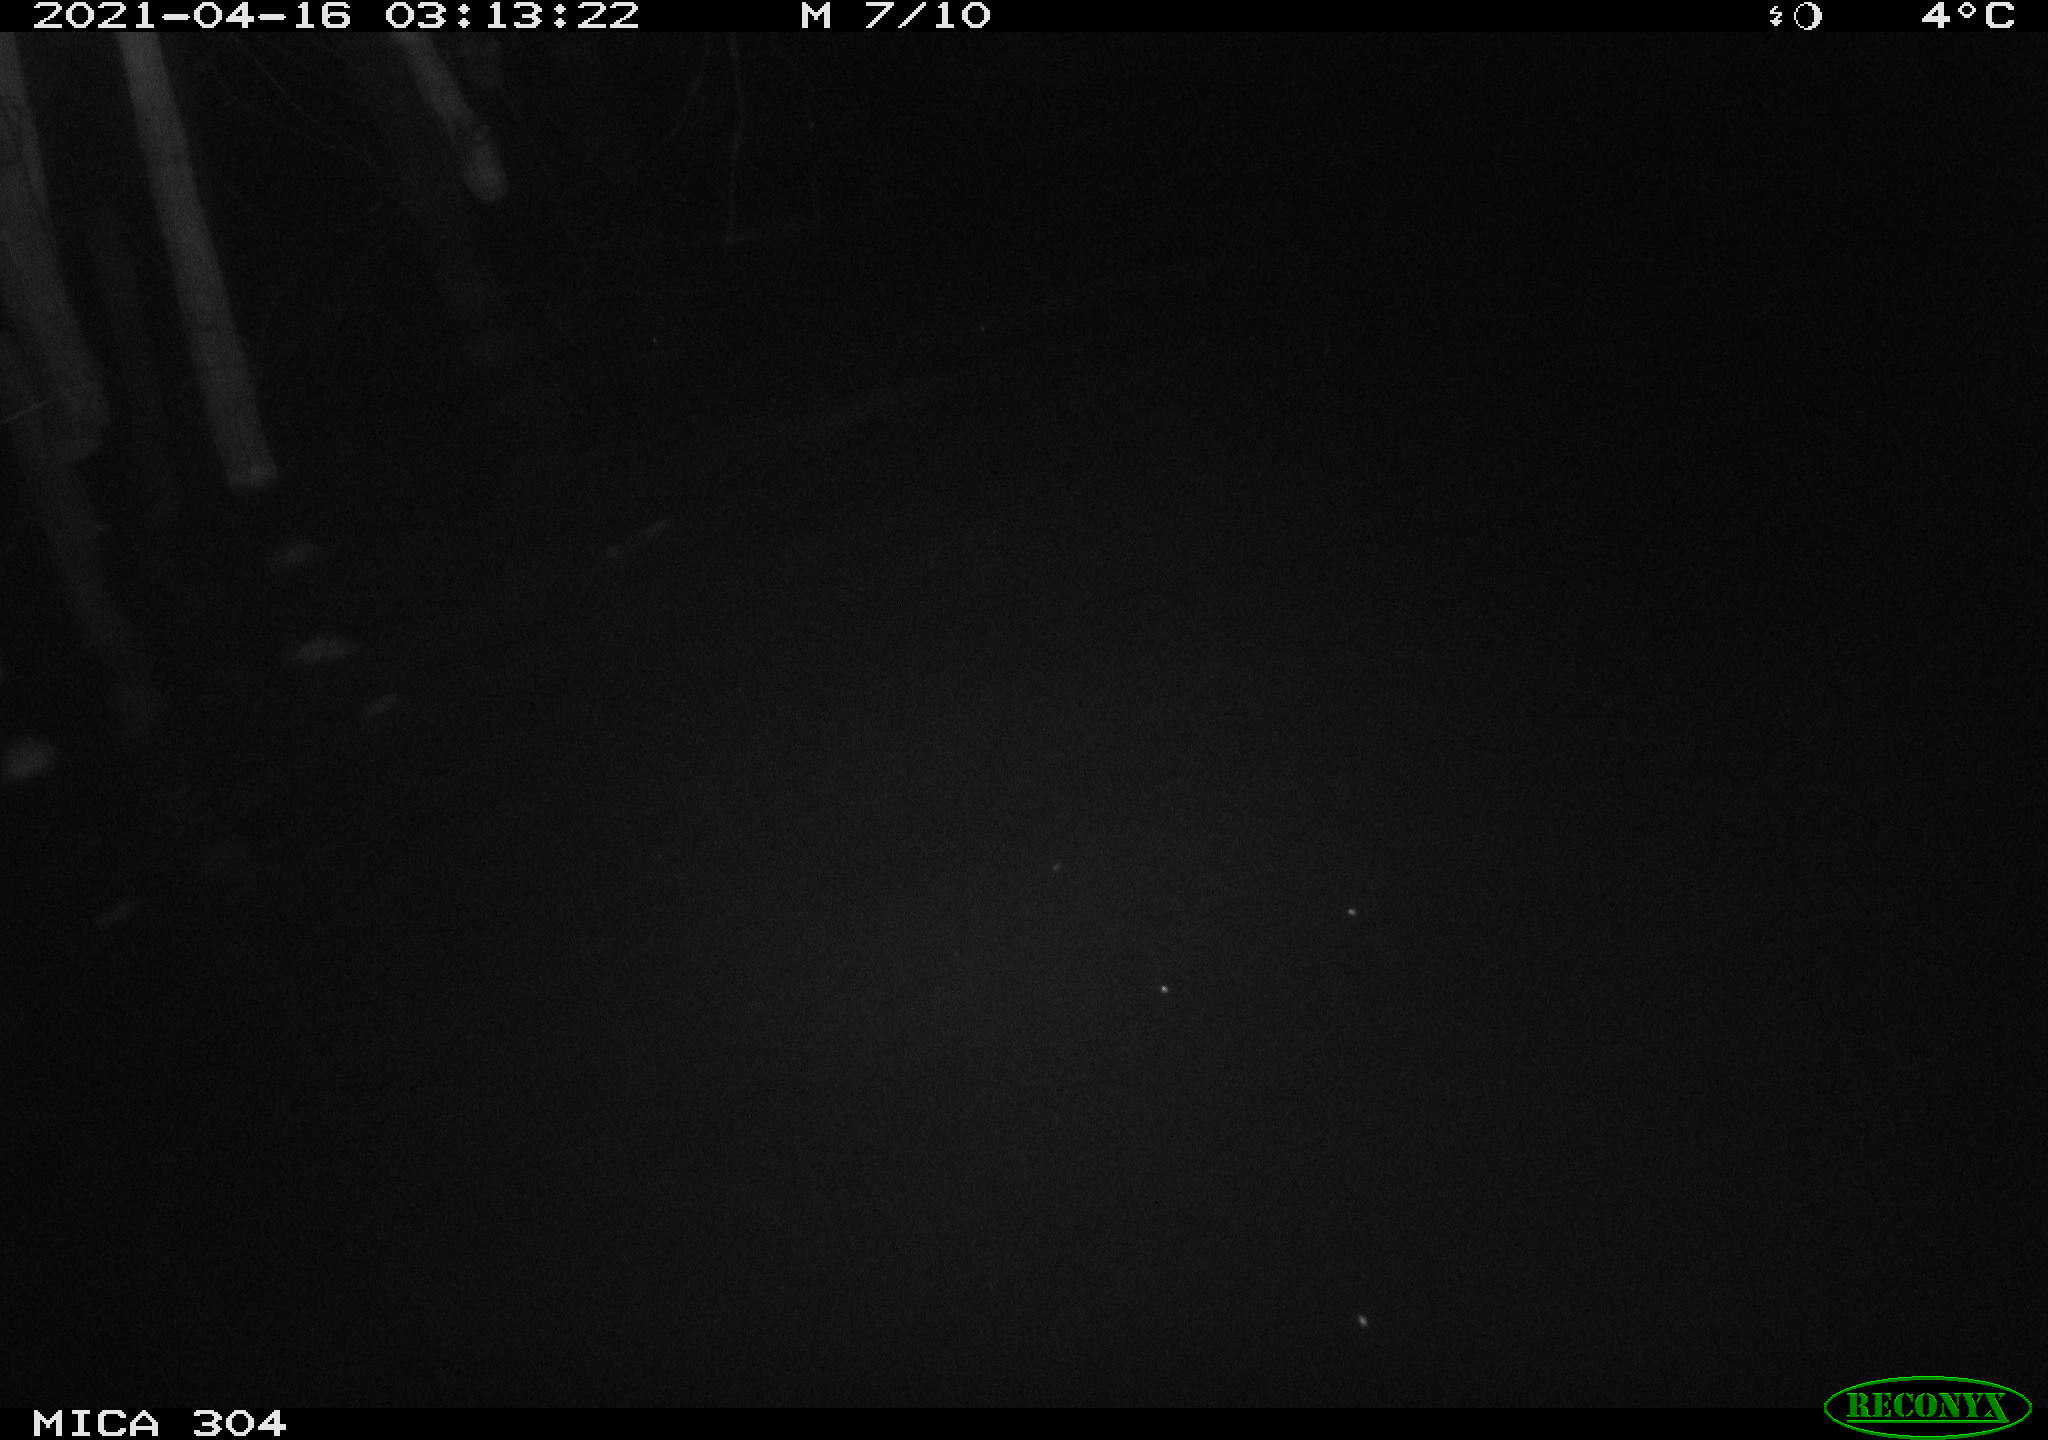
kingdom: Animalia
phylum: Chordata
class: Aves
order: Anseriformes
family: Anatidae
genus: Anas
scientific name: Anas
